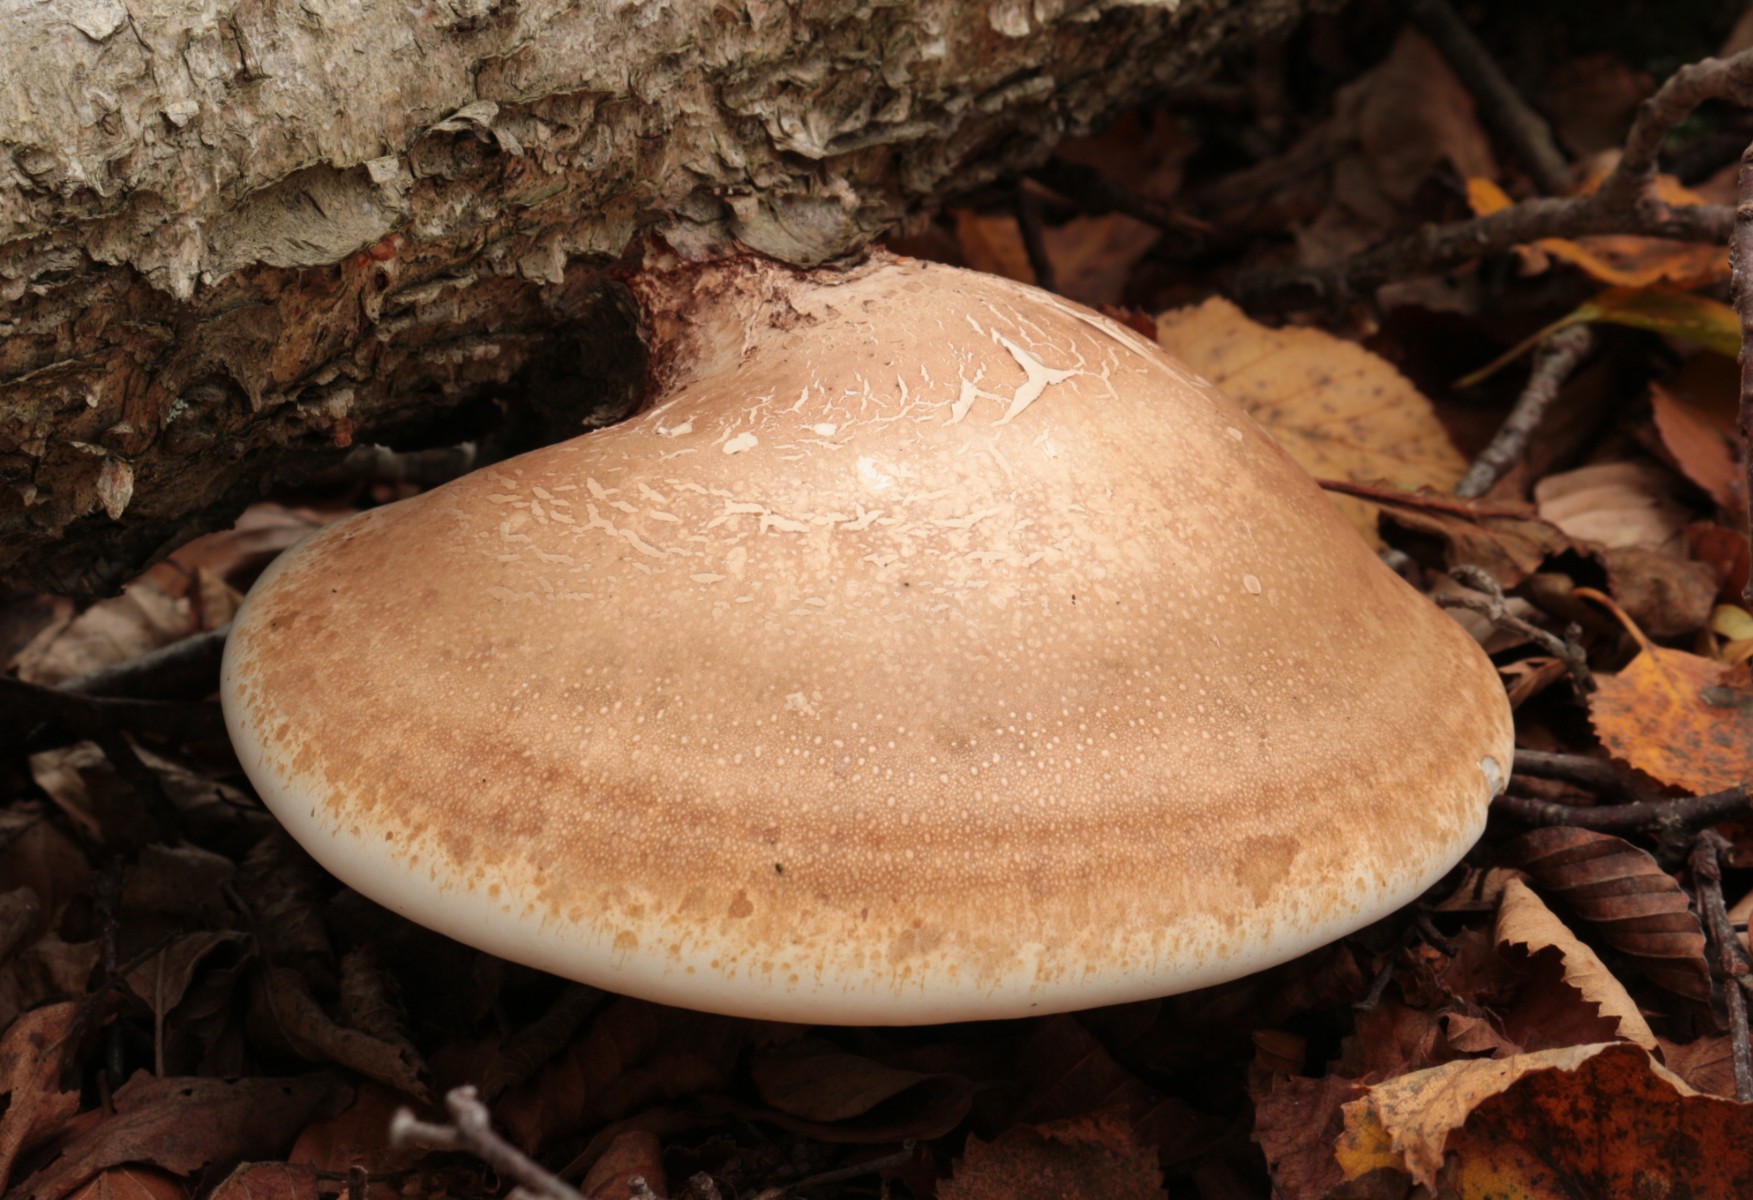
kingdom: Fungi
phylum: Basidiomycota
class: Agaricomycetes
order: Polyporales
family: Fomitopsidaceae
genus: Fomitopsis
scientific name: Fomitopsis betulina
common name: birkeporesvamp
